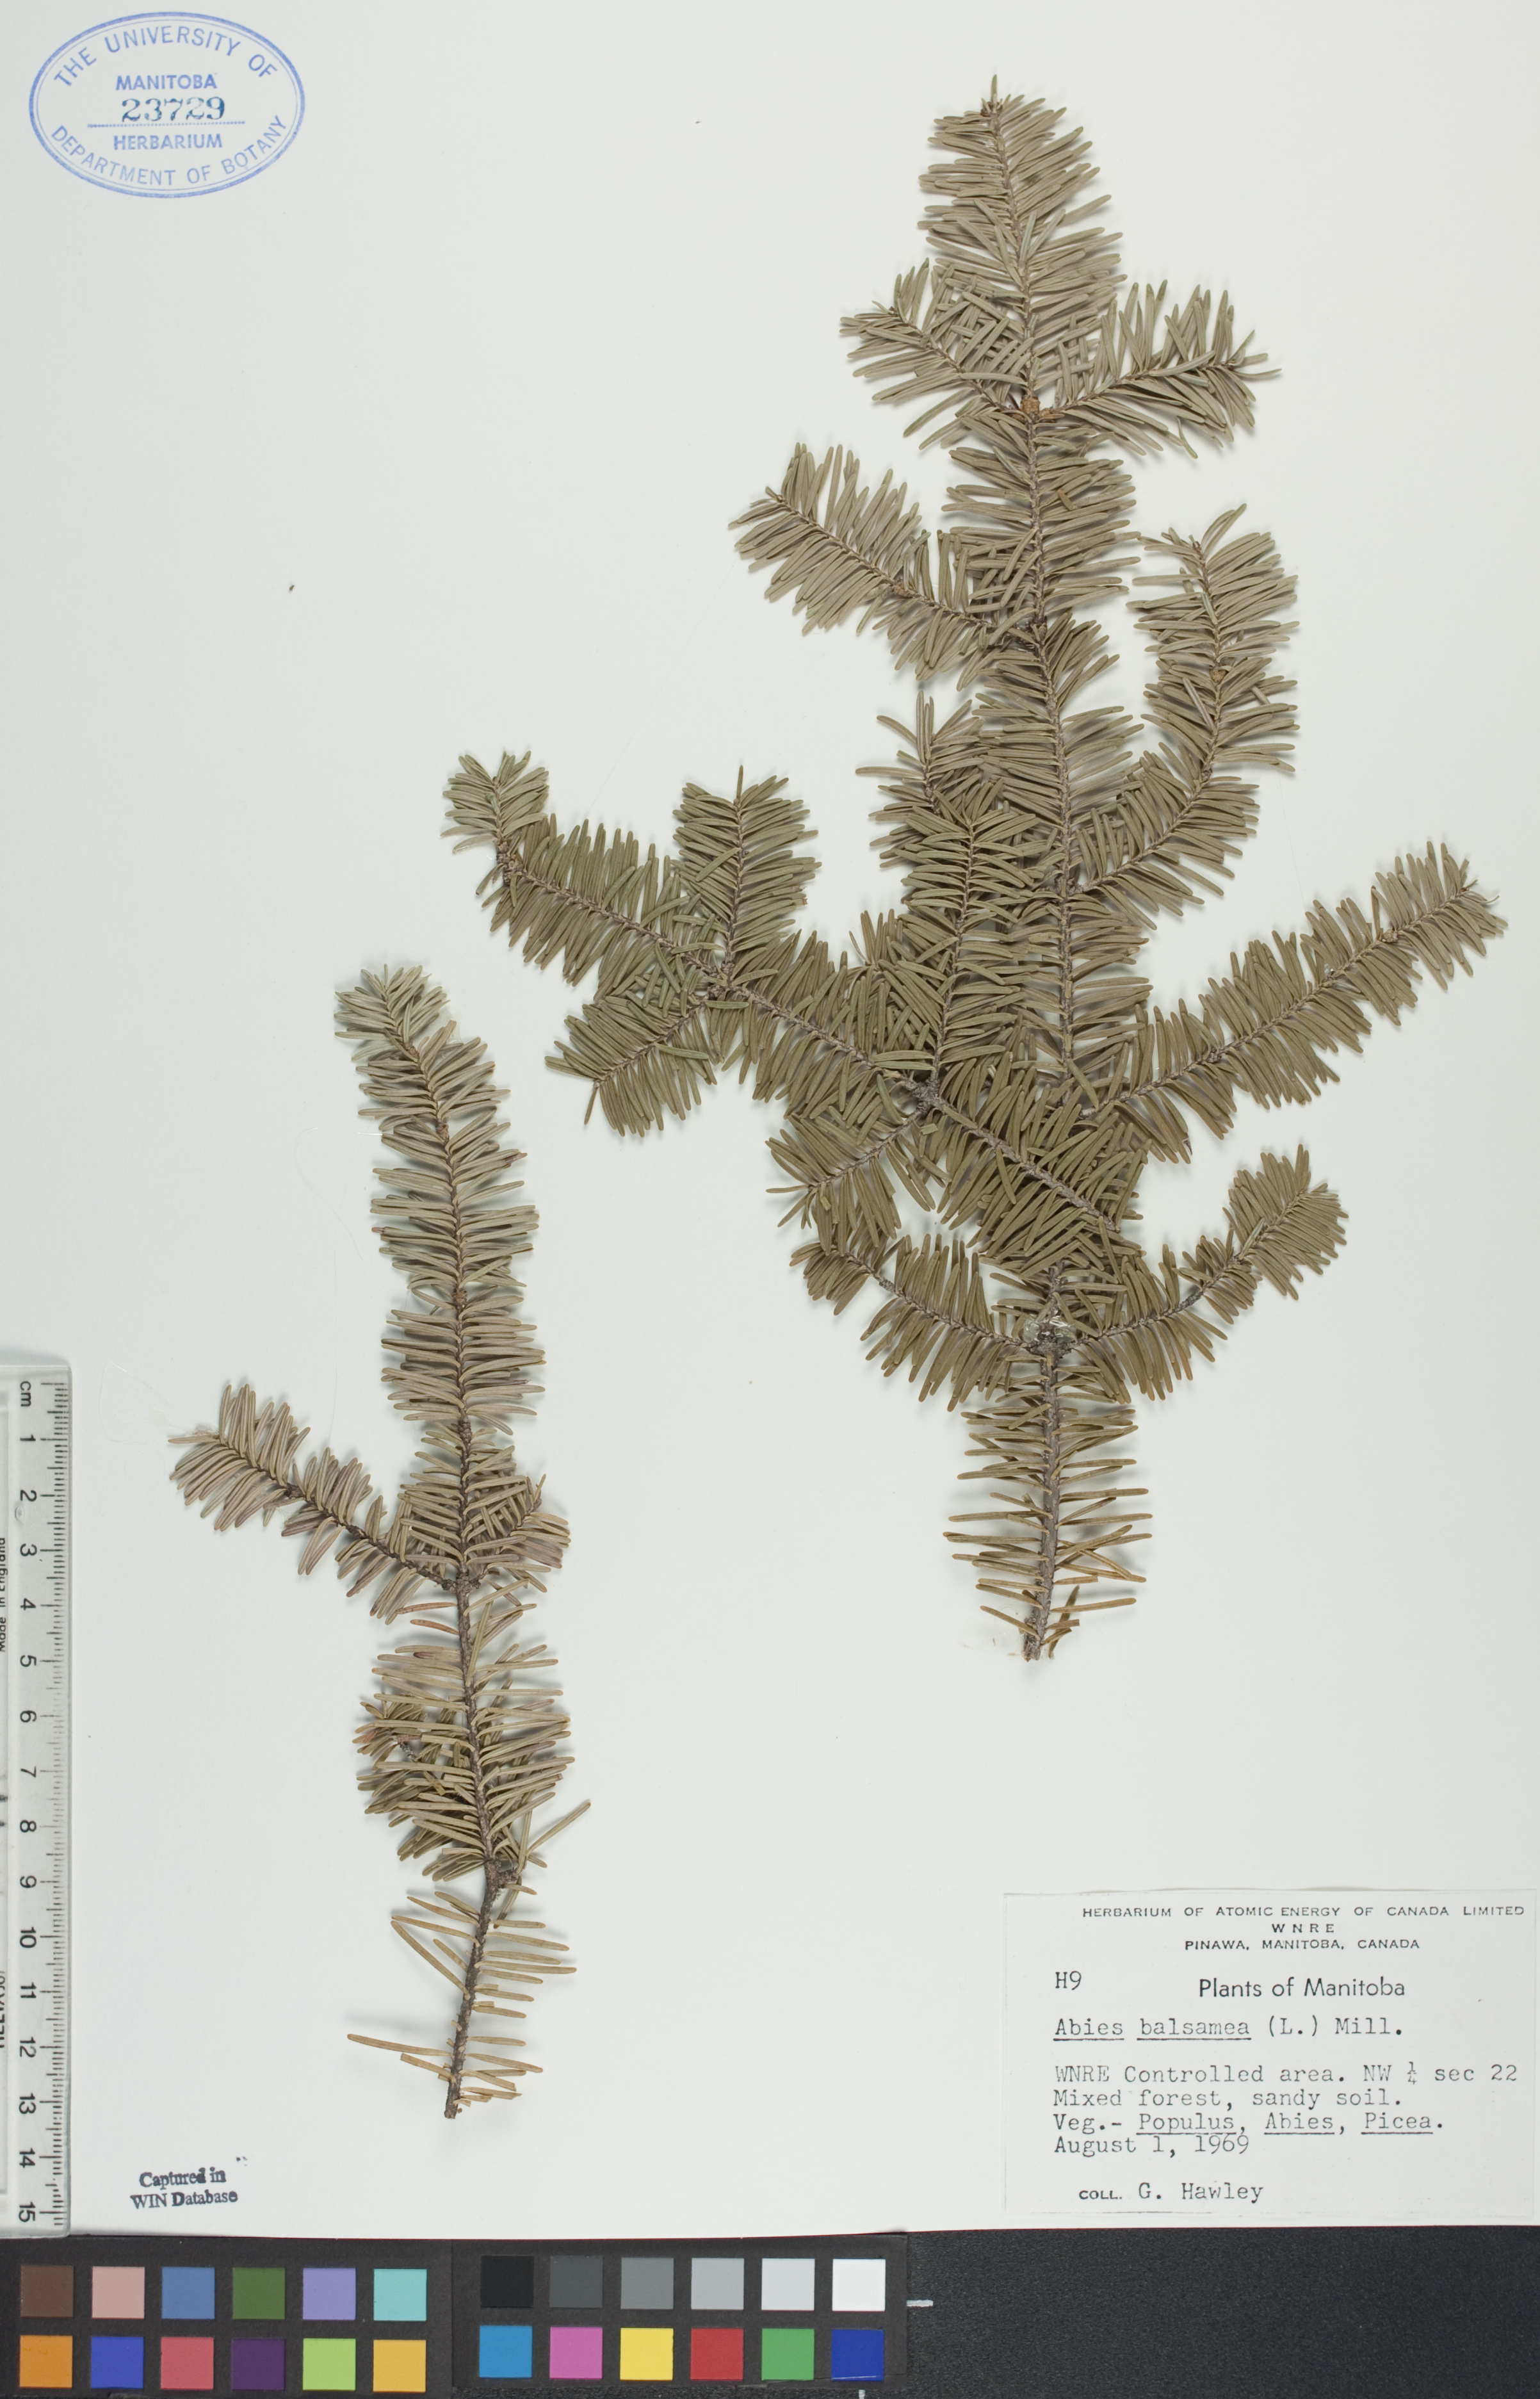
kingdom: Plantae
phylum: Tracheophyta
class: Pinopsida
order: Pinales
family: Pinaceae
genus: Abies
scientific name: Abies balsamea
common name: Balsam fir
